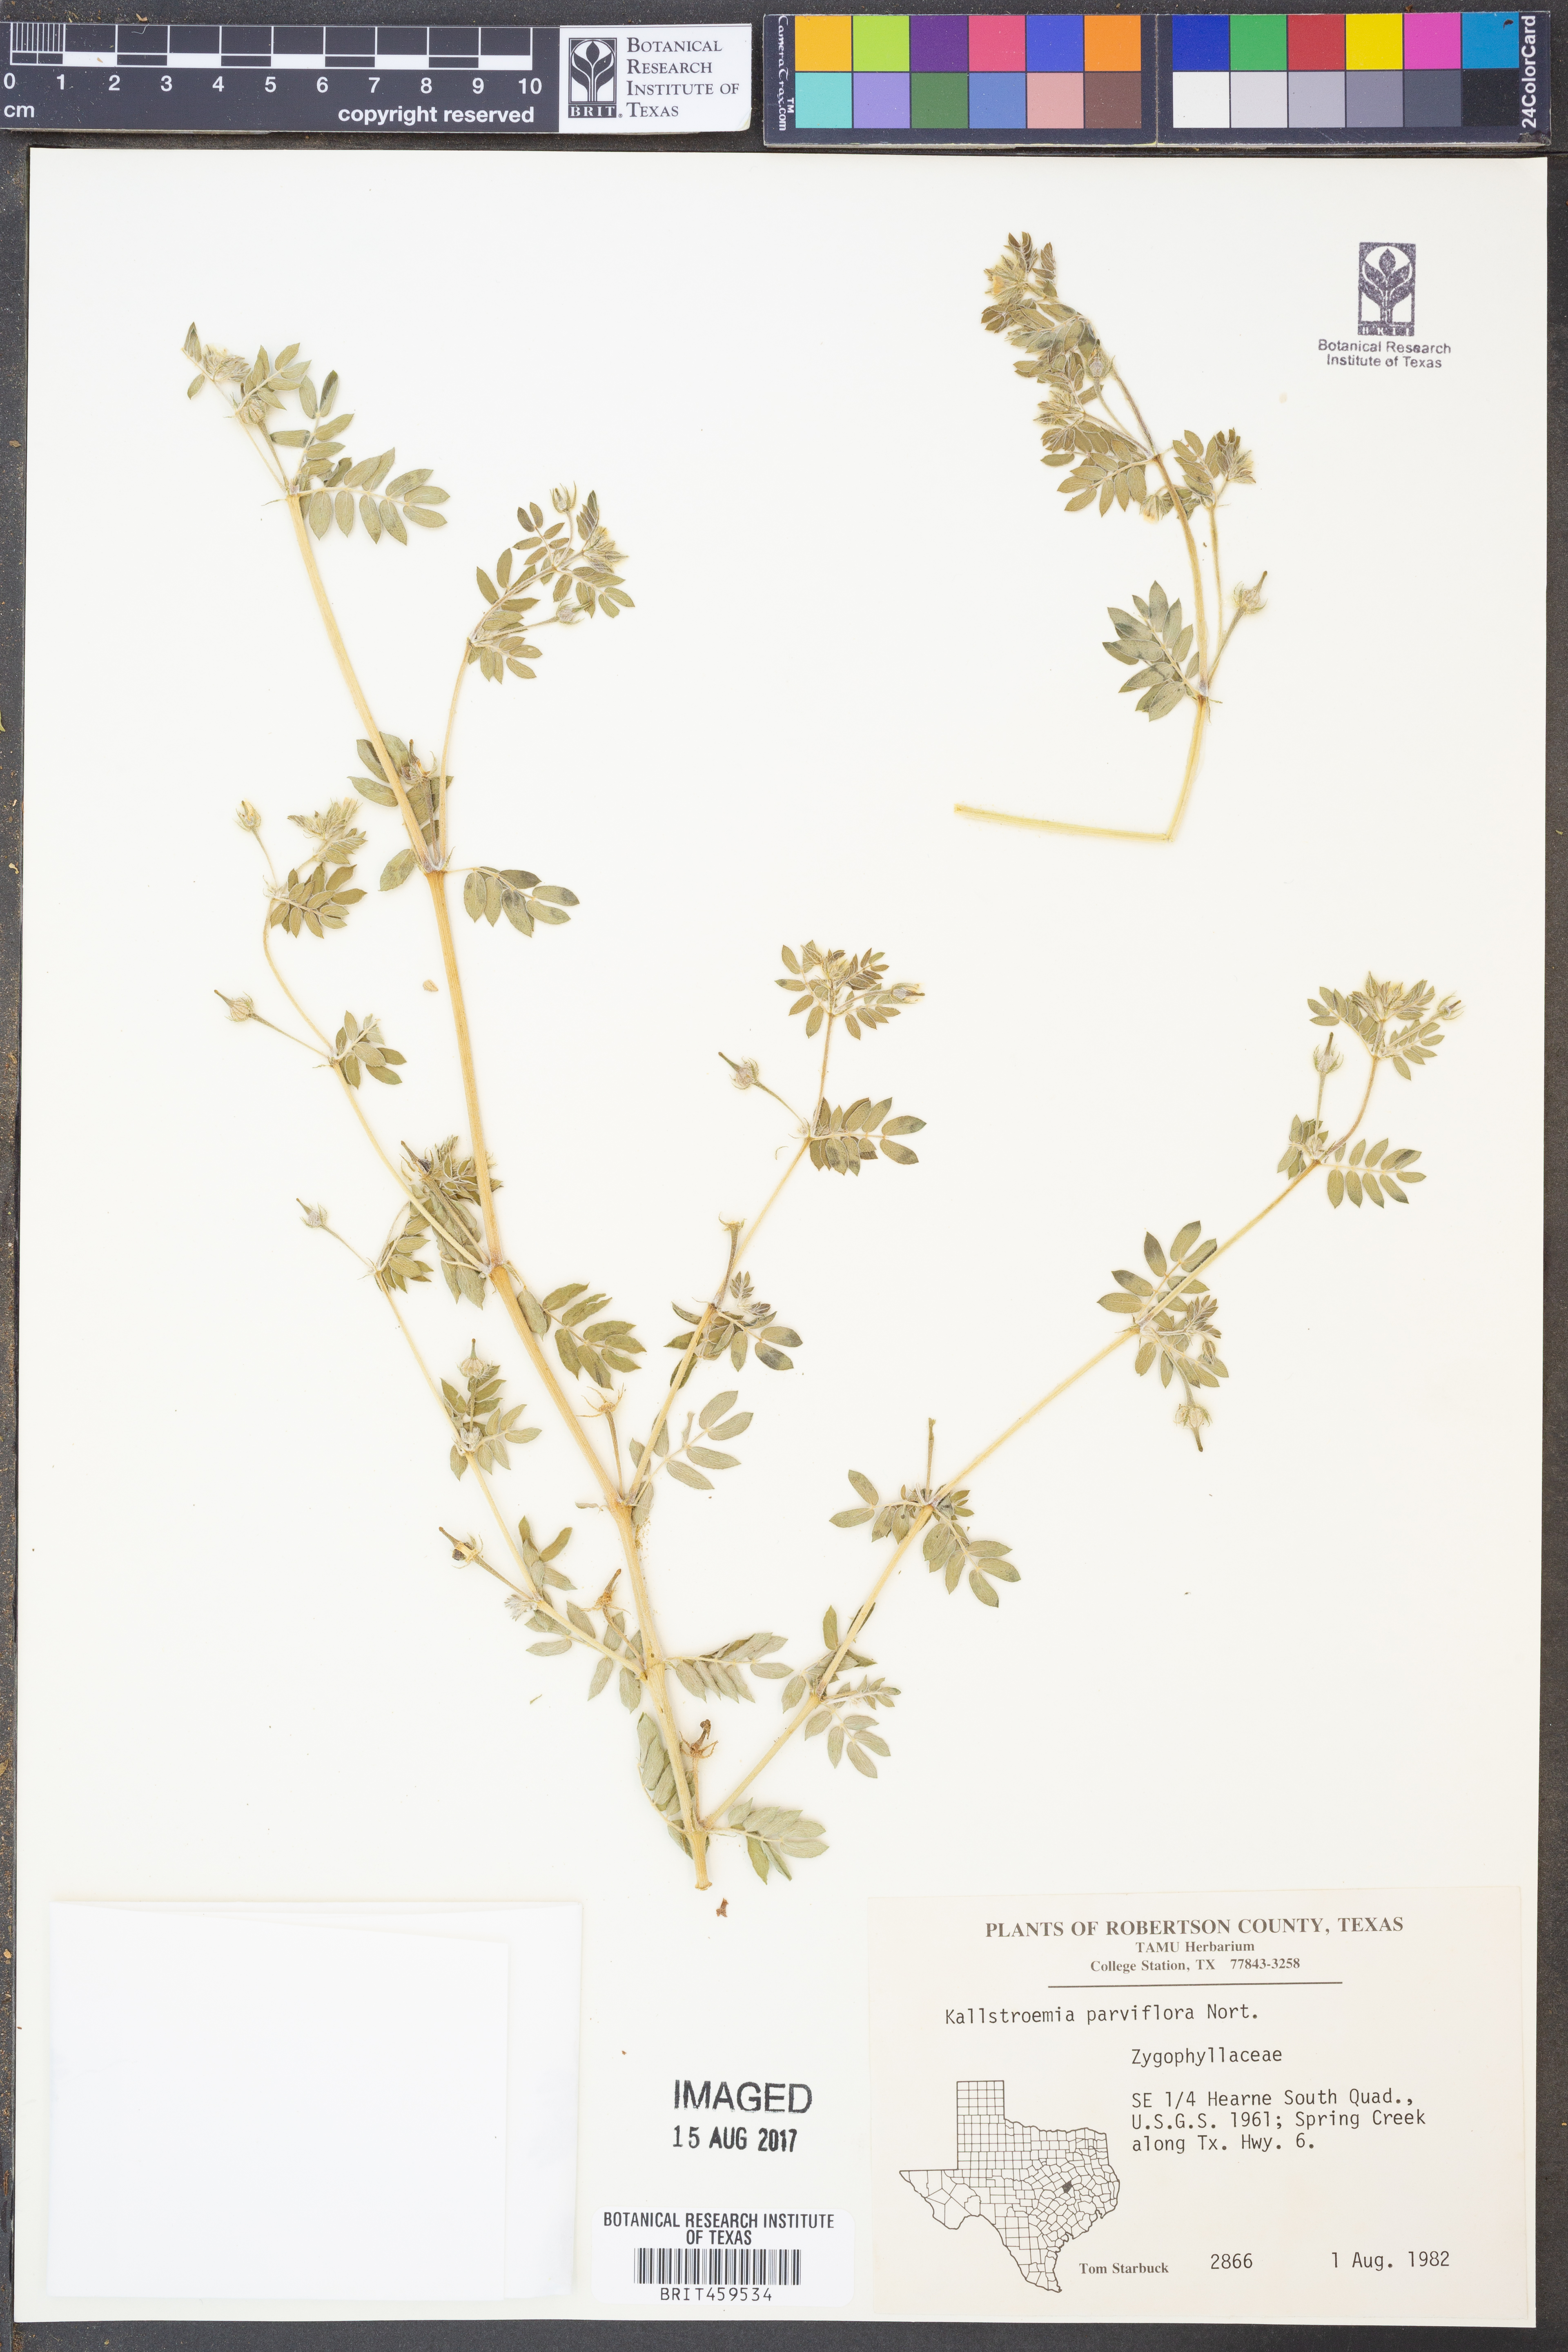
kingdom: Plantae
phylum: Tracheophyta
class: Magnoliopsida
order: Zygophyllales
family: Zygophyllaceae
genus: Kallstroemia
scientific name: Kallstroemia parviflora
